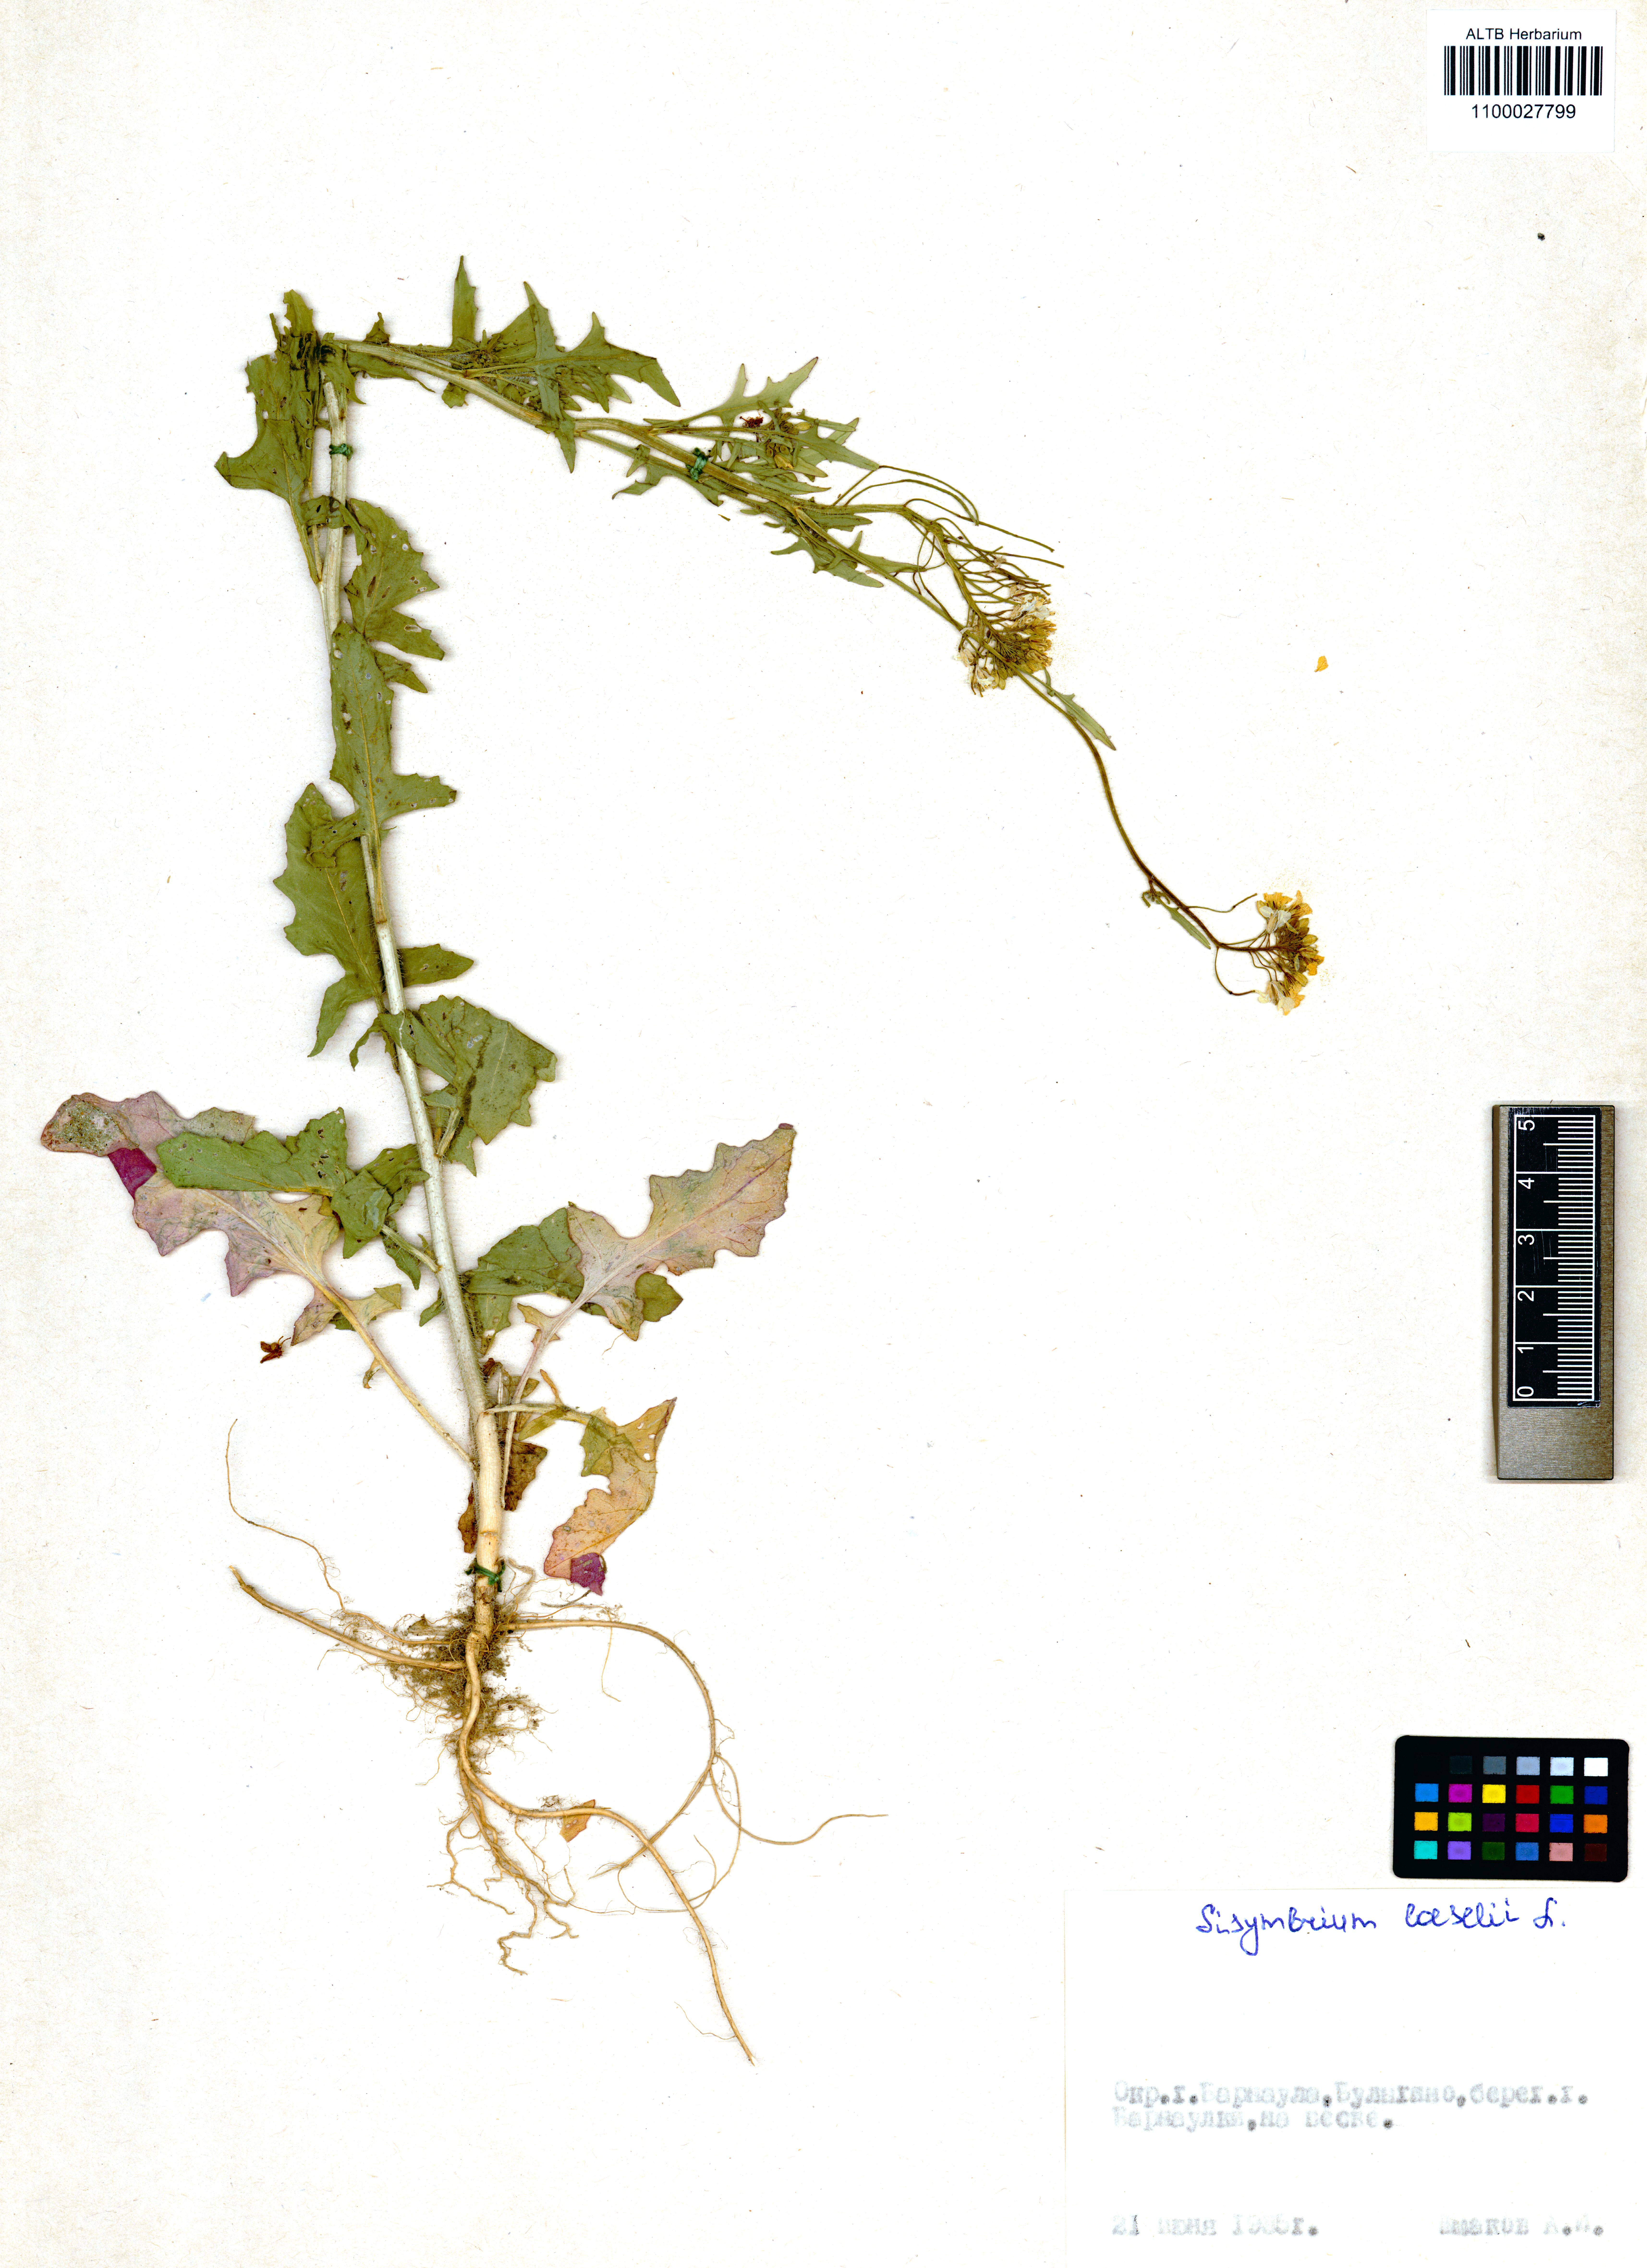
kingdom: Plantae
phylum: Tracheophyta
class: Magnoliopsida
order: Brassicales
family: Brassicaceae
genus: Sisymbrium
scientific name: Sisymbrium loeselii
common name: False london-rocket
